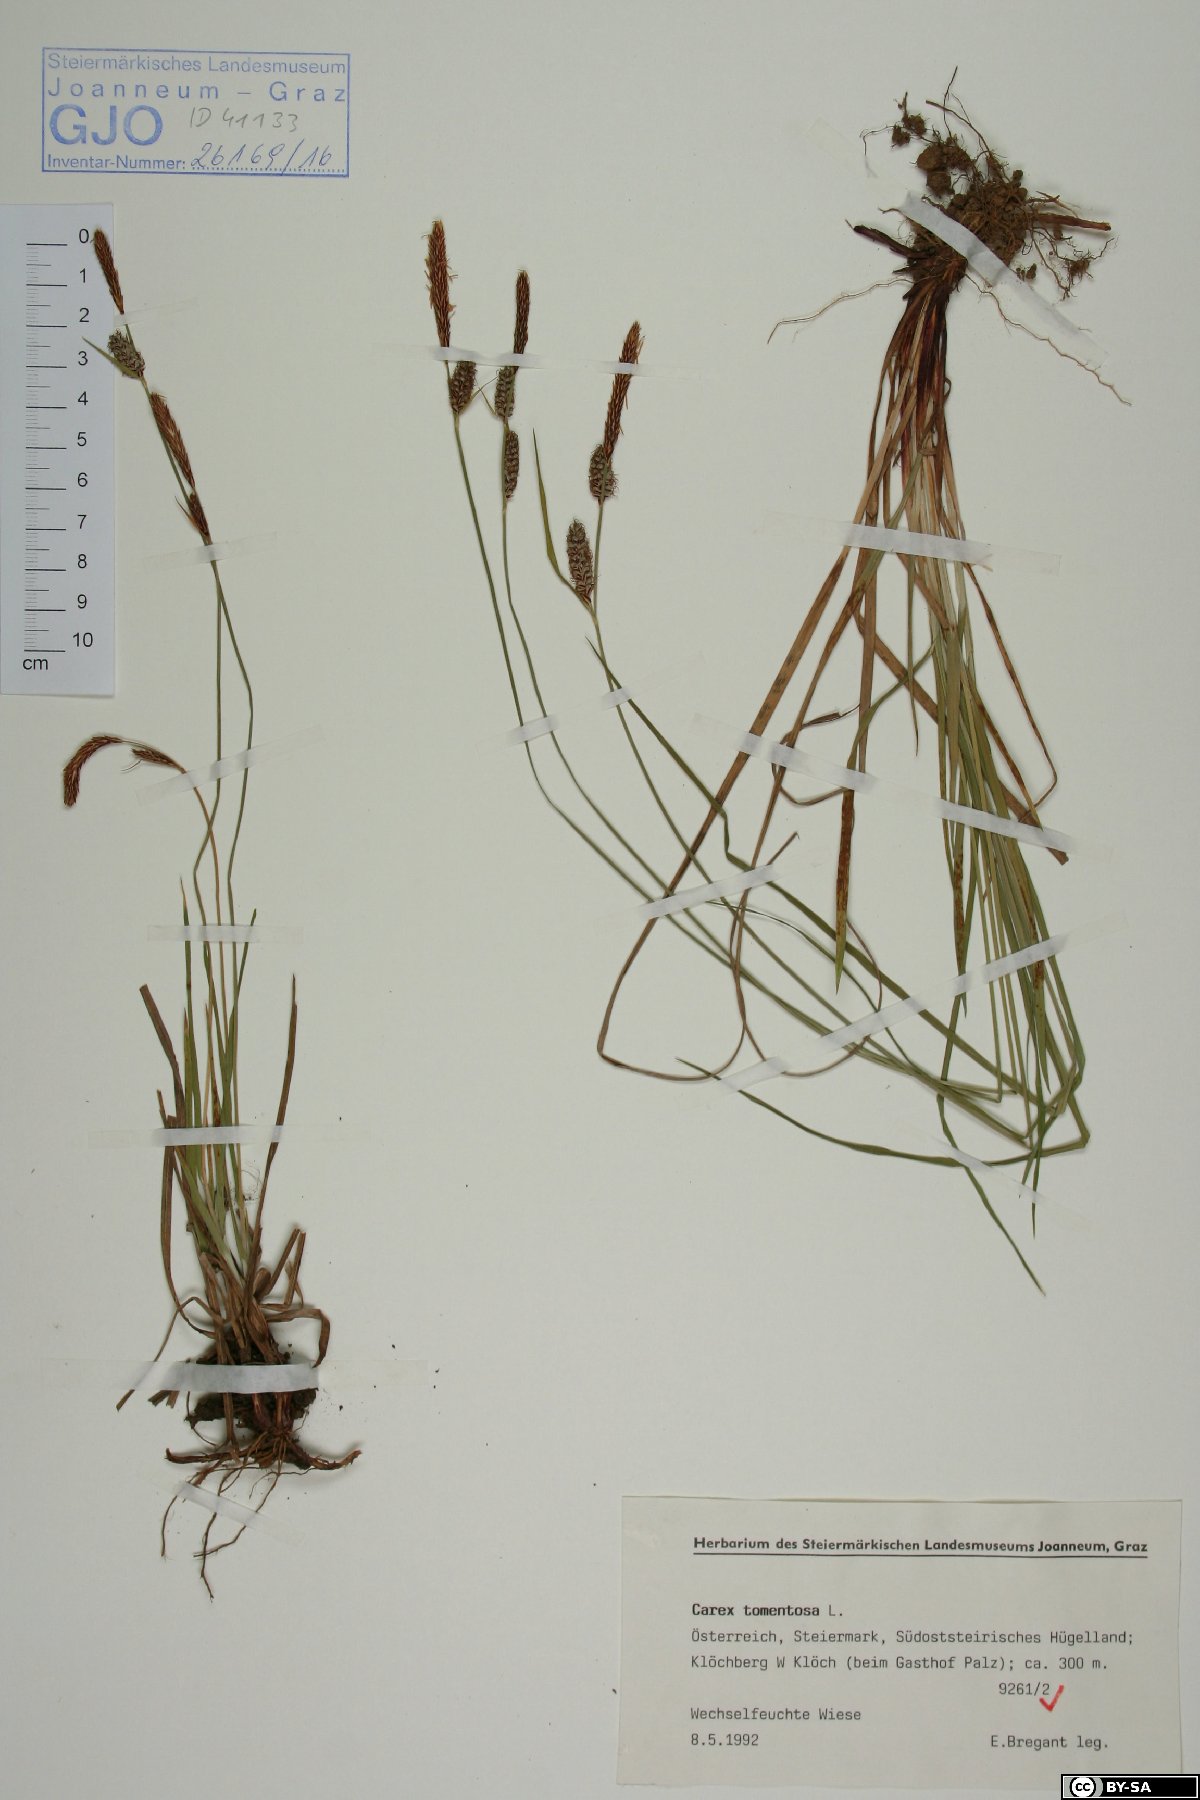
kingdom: Plantae
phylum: Tracheophyta
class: Liliopsida
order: Poales
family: Cyperaceae
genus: Carex
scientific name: Carex tomentosa
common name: Downy-fruited sedge
